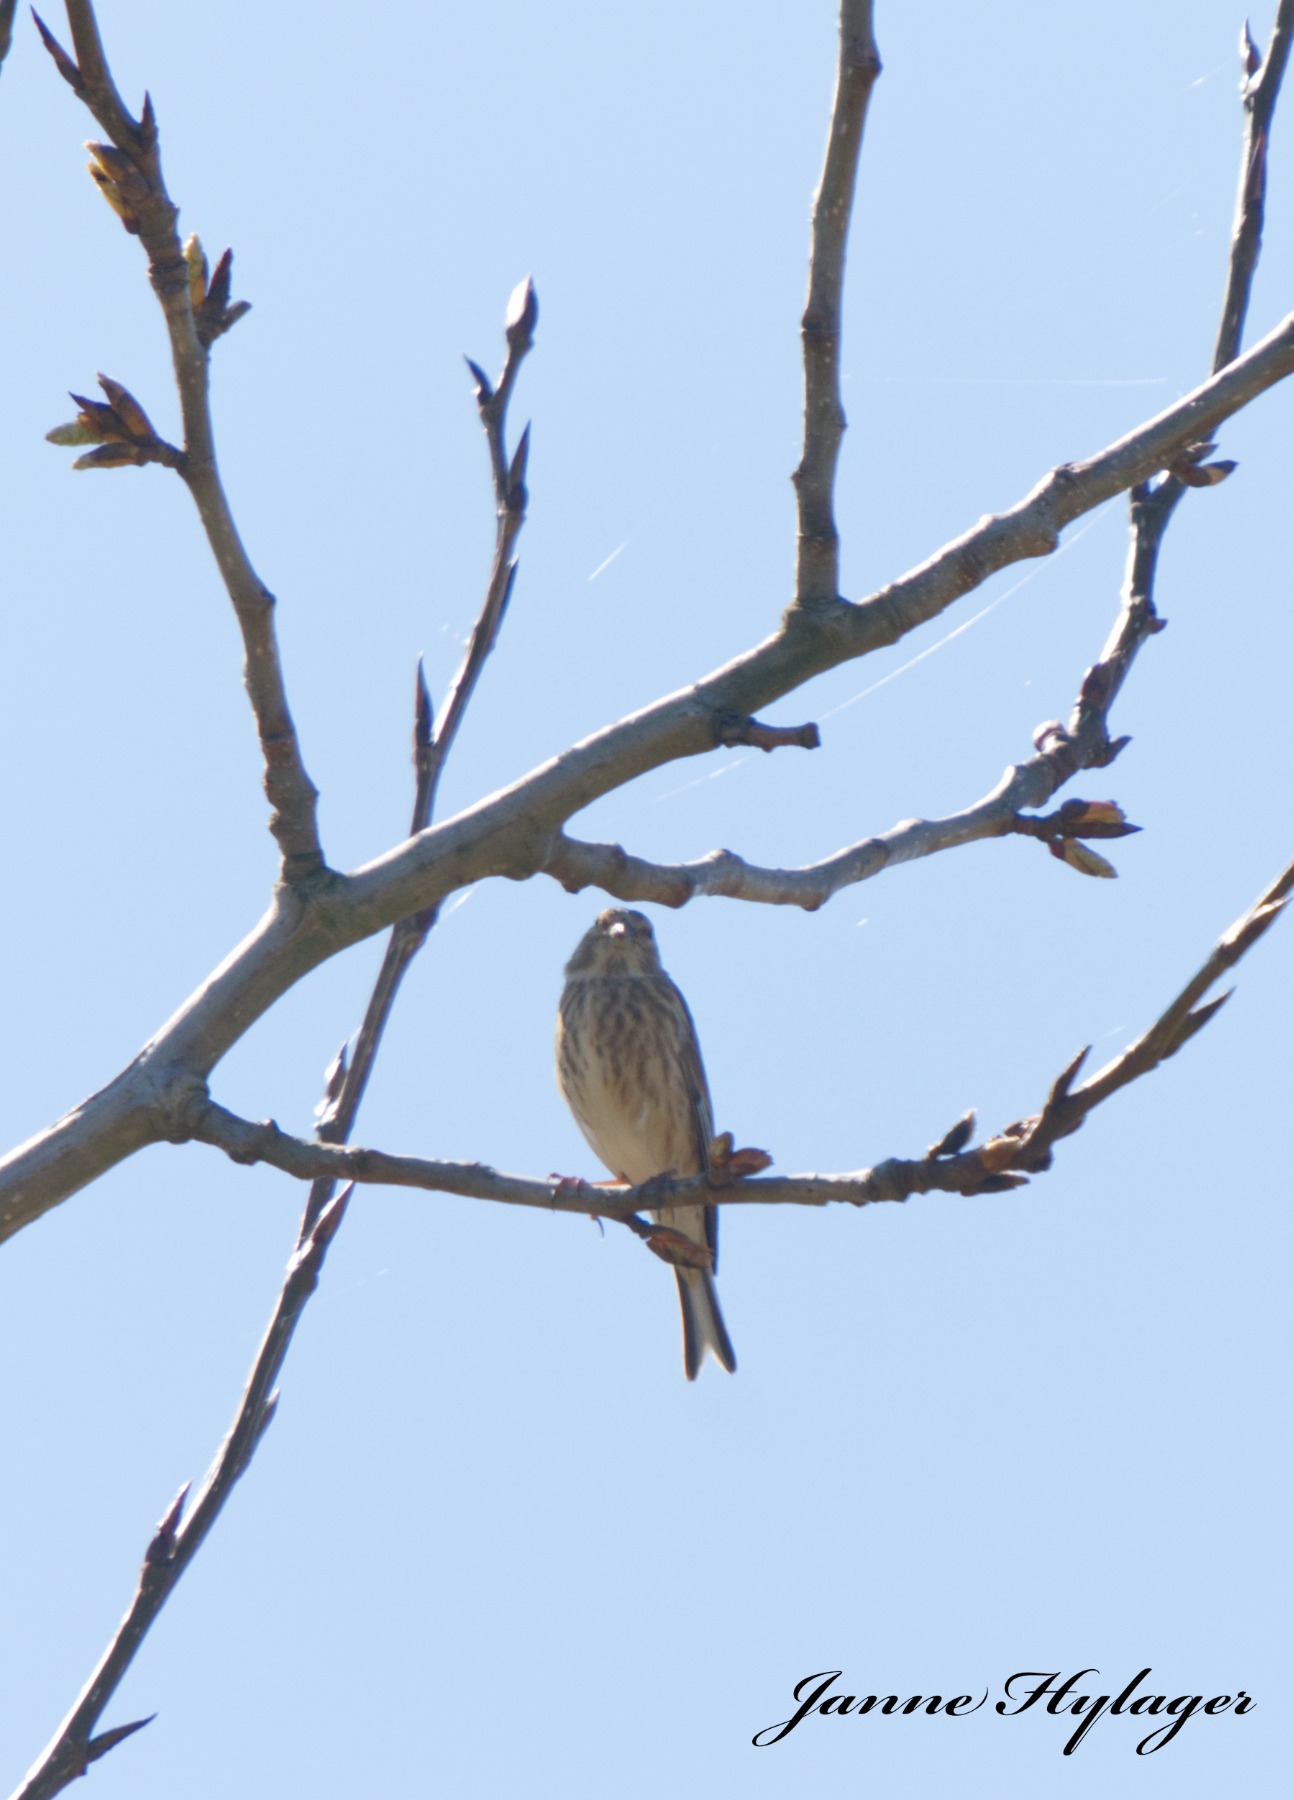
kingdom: Animalia
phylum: Chordata
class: Aves
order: Passeriformes
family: Fringillidae
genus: Linaria
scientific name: Linaria cannabina
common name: Tornirisk
